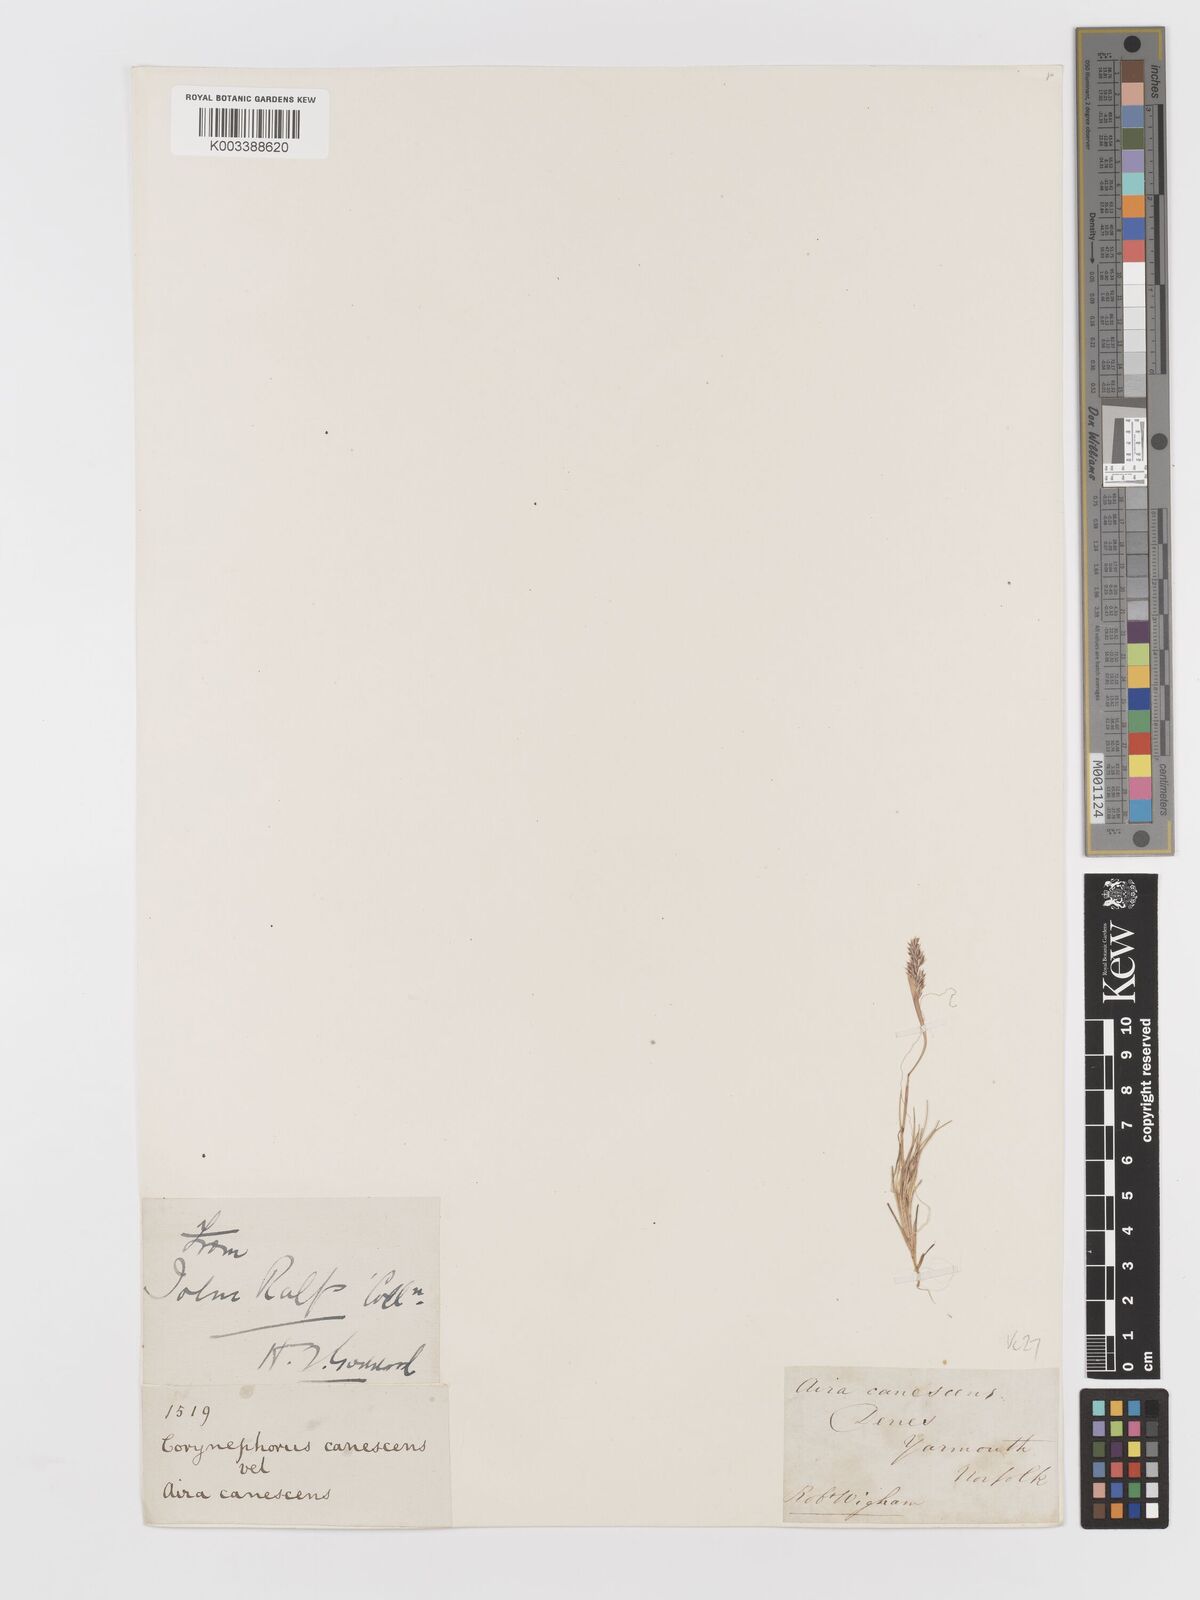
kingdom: Plantae
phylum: Tracheophyta
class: Liliopsida
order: Poales
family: Poaceae
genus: Corynephorus
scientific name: Corynephorus canescens
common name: Grey hair-grass
